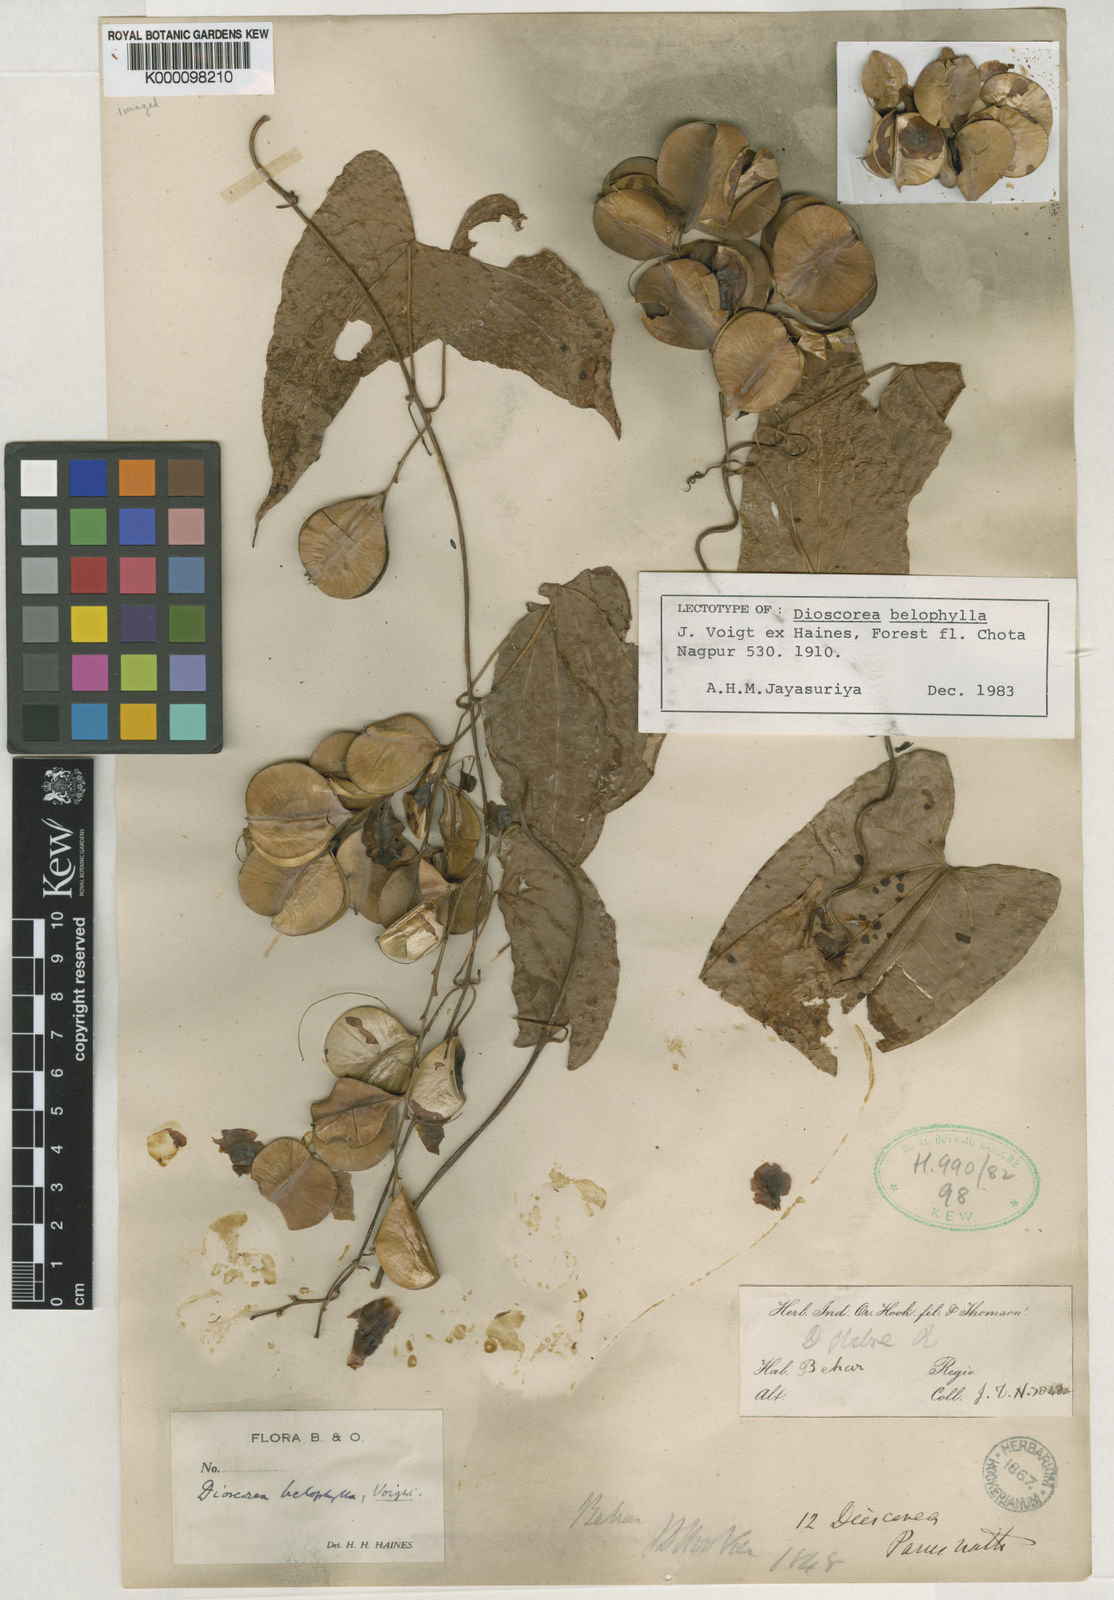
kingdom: Plantae
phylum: Tracheophyta
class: Liliopsida
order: Dioscoreales
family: Dioscoreaceae
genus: Dioscorea
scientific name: Dioscorea belophylla
